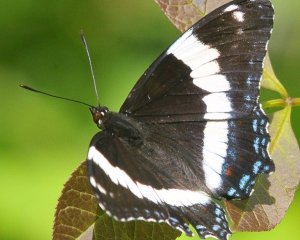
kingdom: Animalia
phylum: Arthropoda
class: Insecta
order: Lepidoptera
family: Nymphalidae
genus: Limenitis
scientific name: Limenitis arthemis
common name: Red-spotted Admiral
